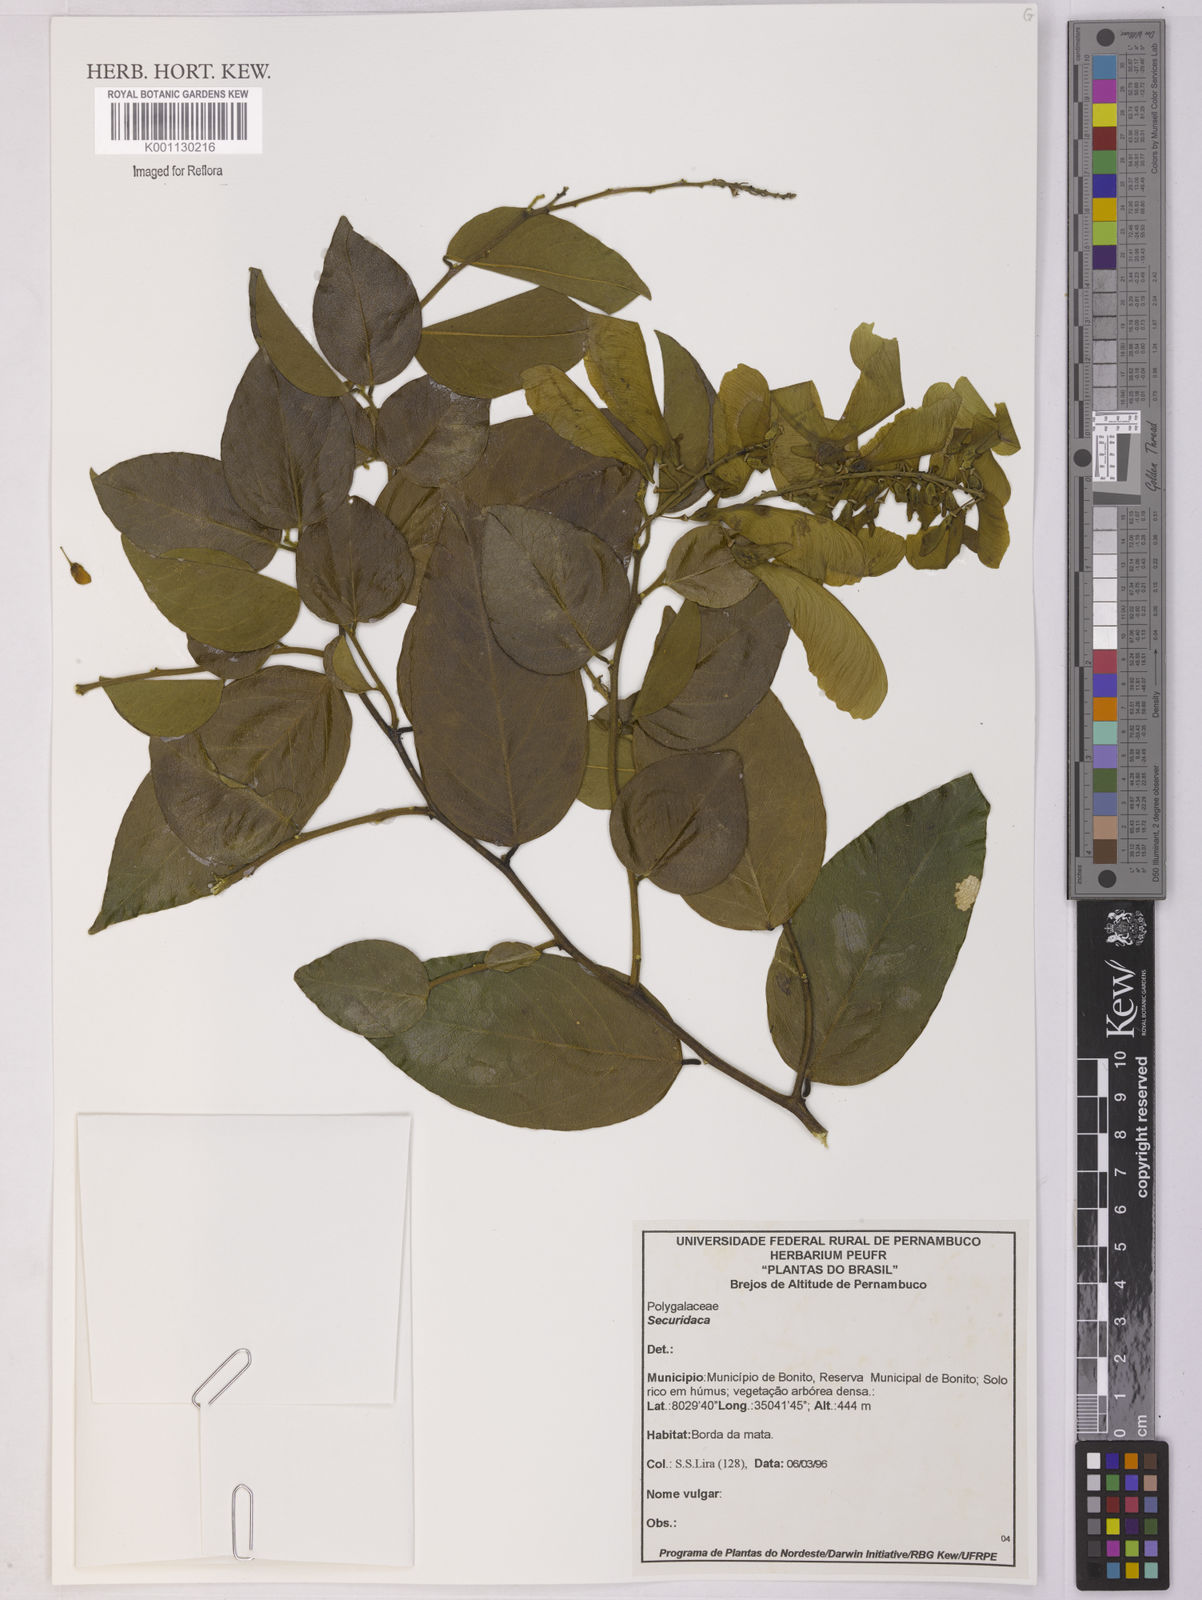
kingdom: Plantae
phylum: Tracheophyta
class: Magnoliopsida
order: Fabales
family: Polygalaceae
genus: Securidaca
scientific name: Securidaca
